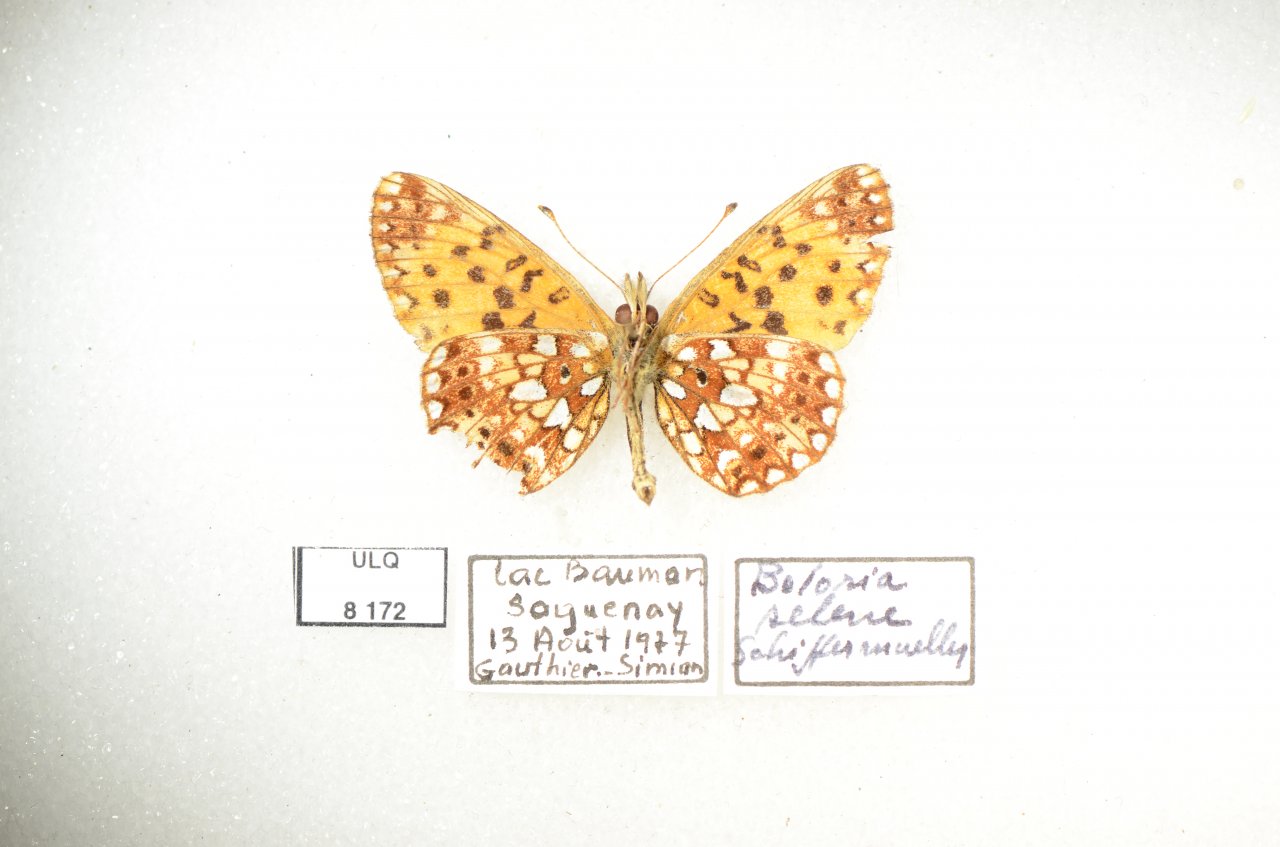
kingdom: Animalia
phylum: Arthropoda
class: Insecta
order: Lepidoptera
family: Nymphalidae
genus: Boloria
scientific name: Boloria selene
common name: Silver-bordered Fritillary
